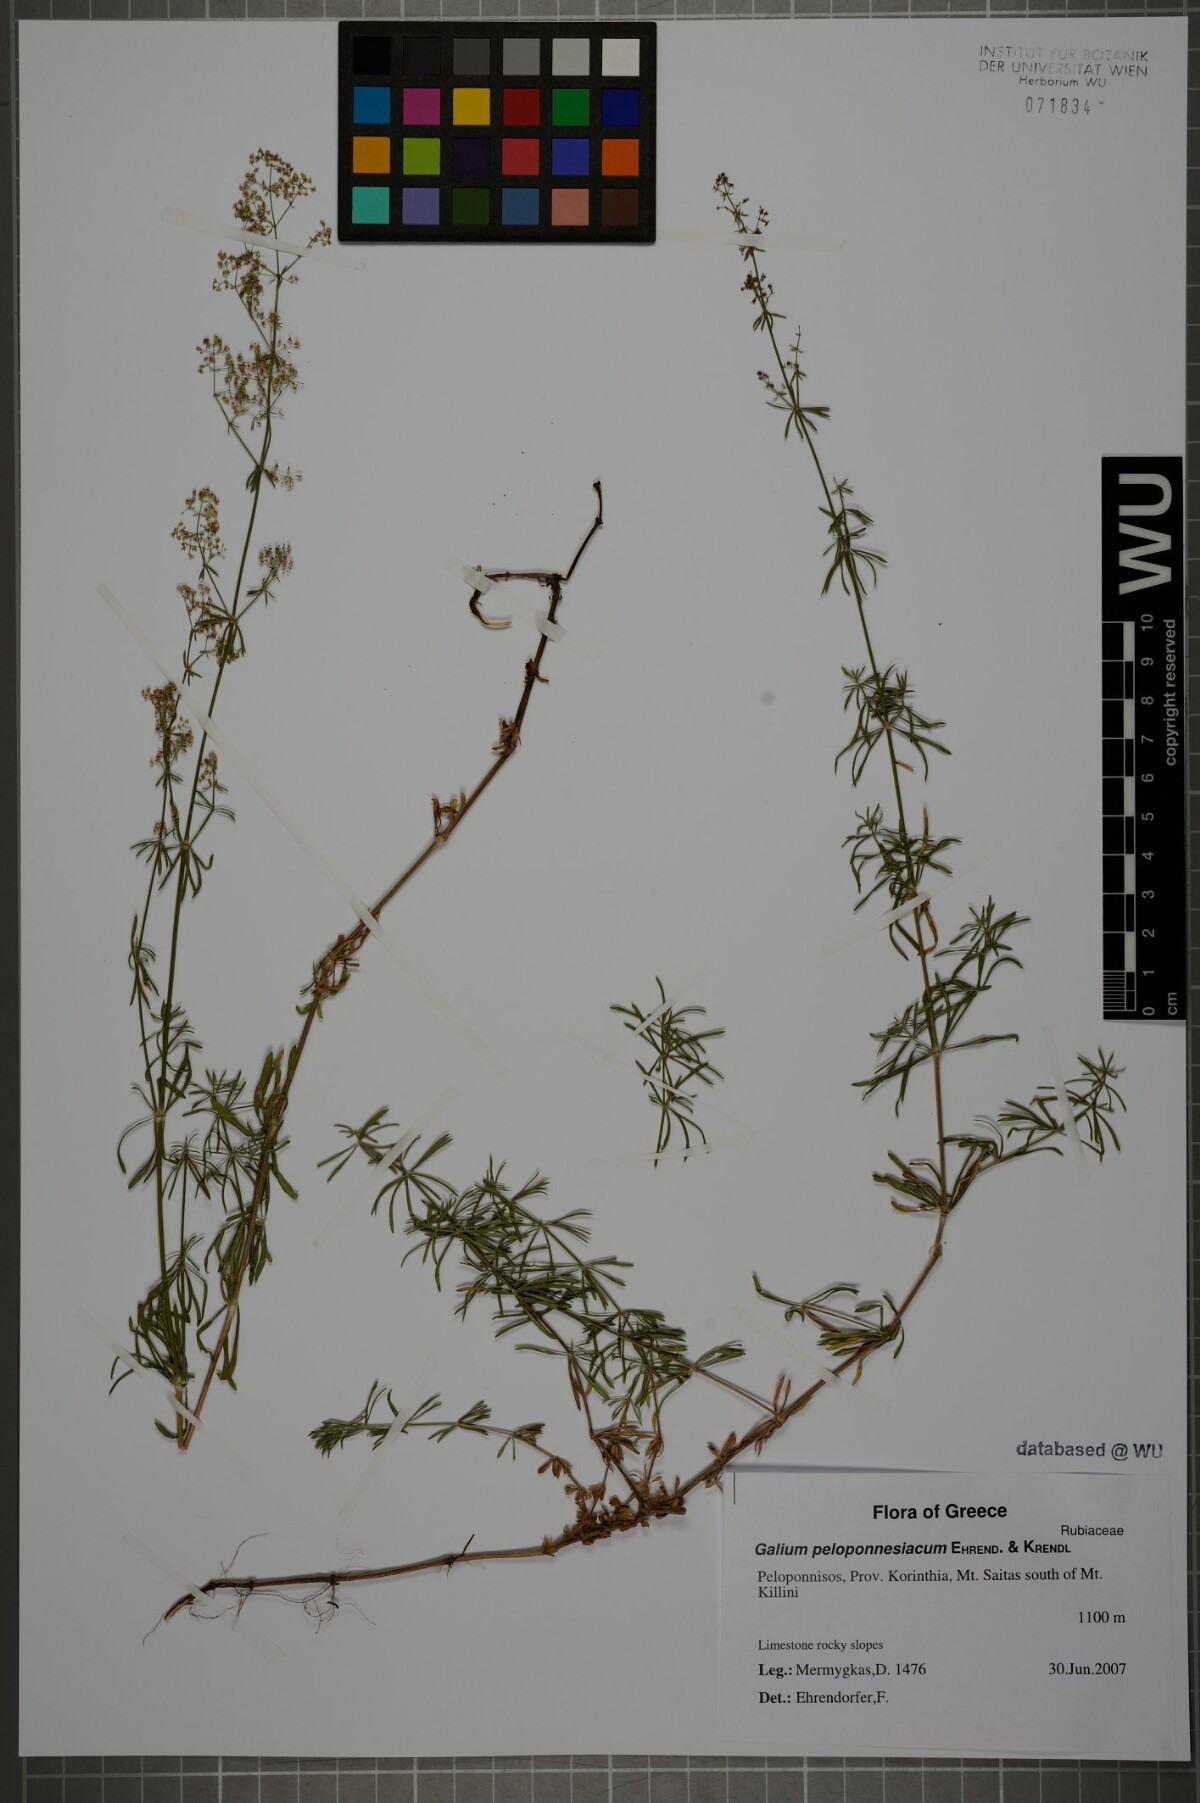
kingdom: Plantae
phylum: Tracheophyta
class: Magnoliopsida
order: Gentianales
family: Rubiaceae
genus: Galium
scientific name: Galium peloponnesiacum
